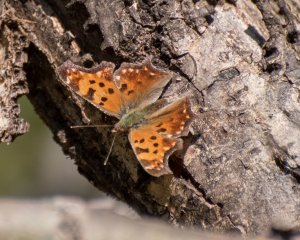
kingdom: Animalia
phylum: Arthropoda
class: Insecta
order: Lepidoptera
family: Nymphalidae
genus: Polygonia
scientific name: Polygonia comma
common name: Eastern Comma
